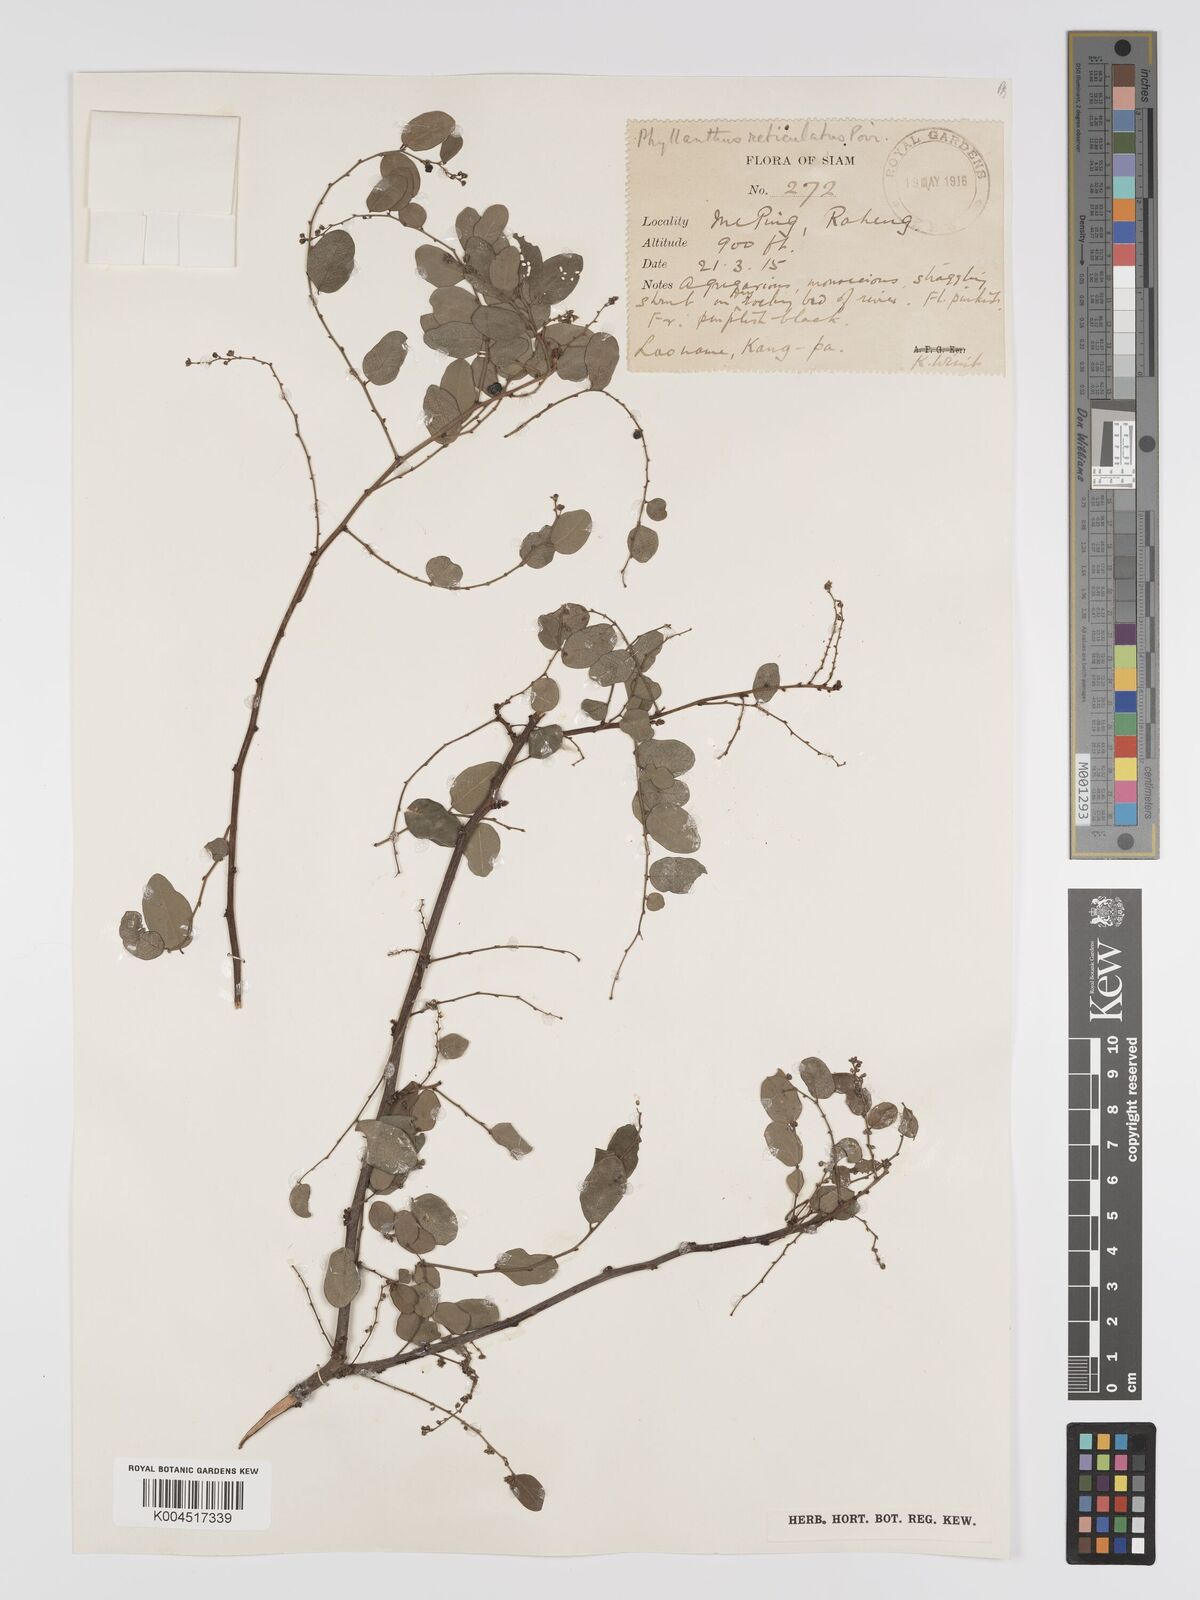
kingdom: Plantae
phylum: Tracheophyta
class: Magnoliopsida
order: Malpighiales
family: Phyllanthaceae
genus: Phyllanthus
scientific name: Phyllanthus reticulatus
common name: Potato bush
